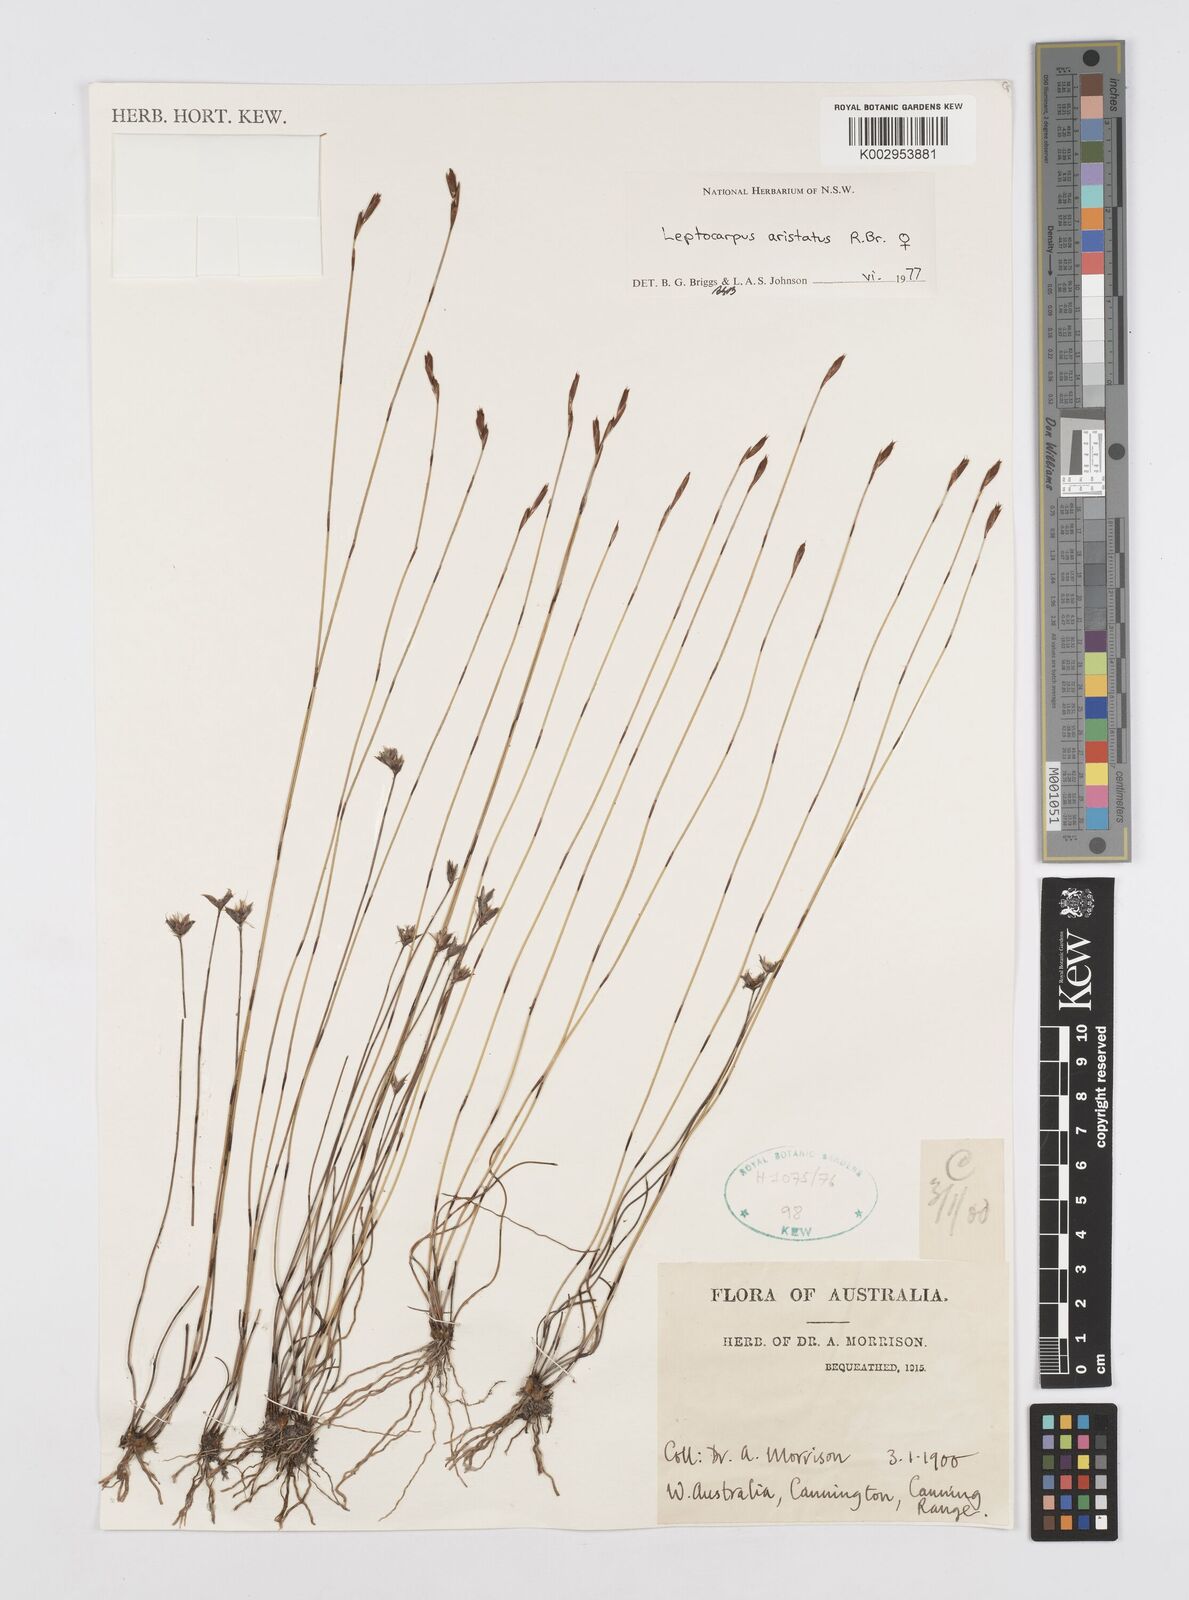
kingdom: Plantae
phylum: Tracheophyta
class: Liliopsida
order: Poales
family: Restionaceae
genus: Chaetanthus
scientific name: Chaetanthus aristatus
